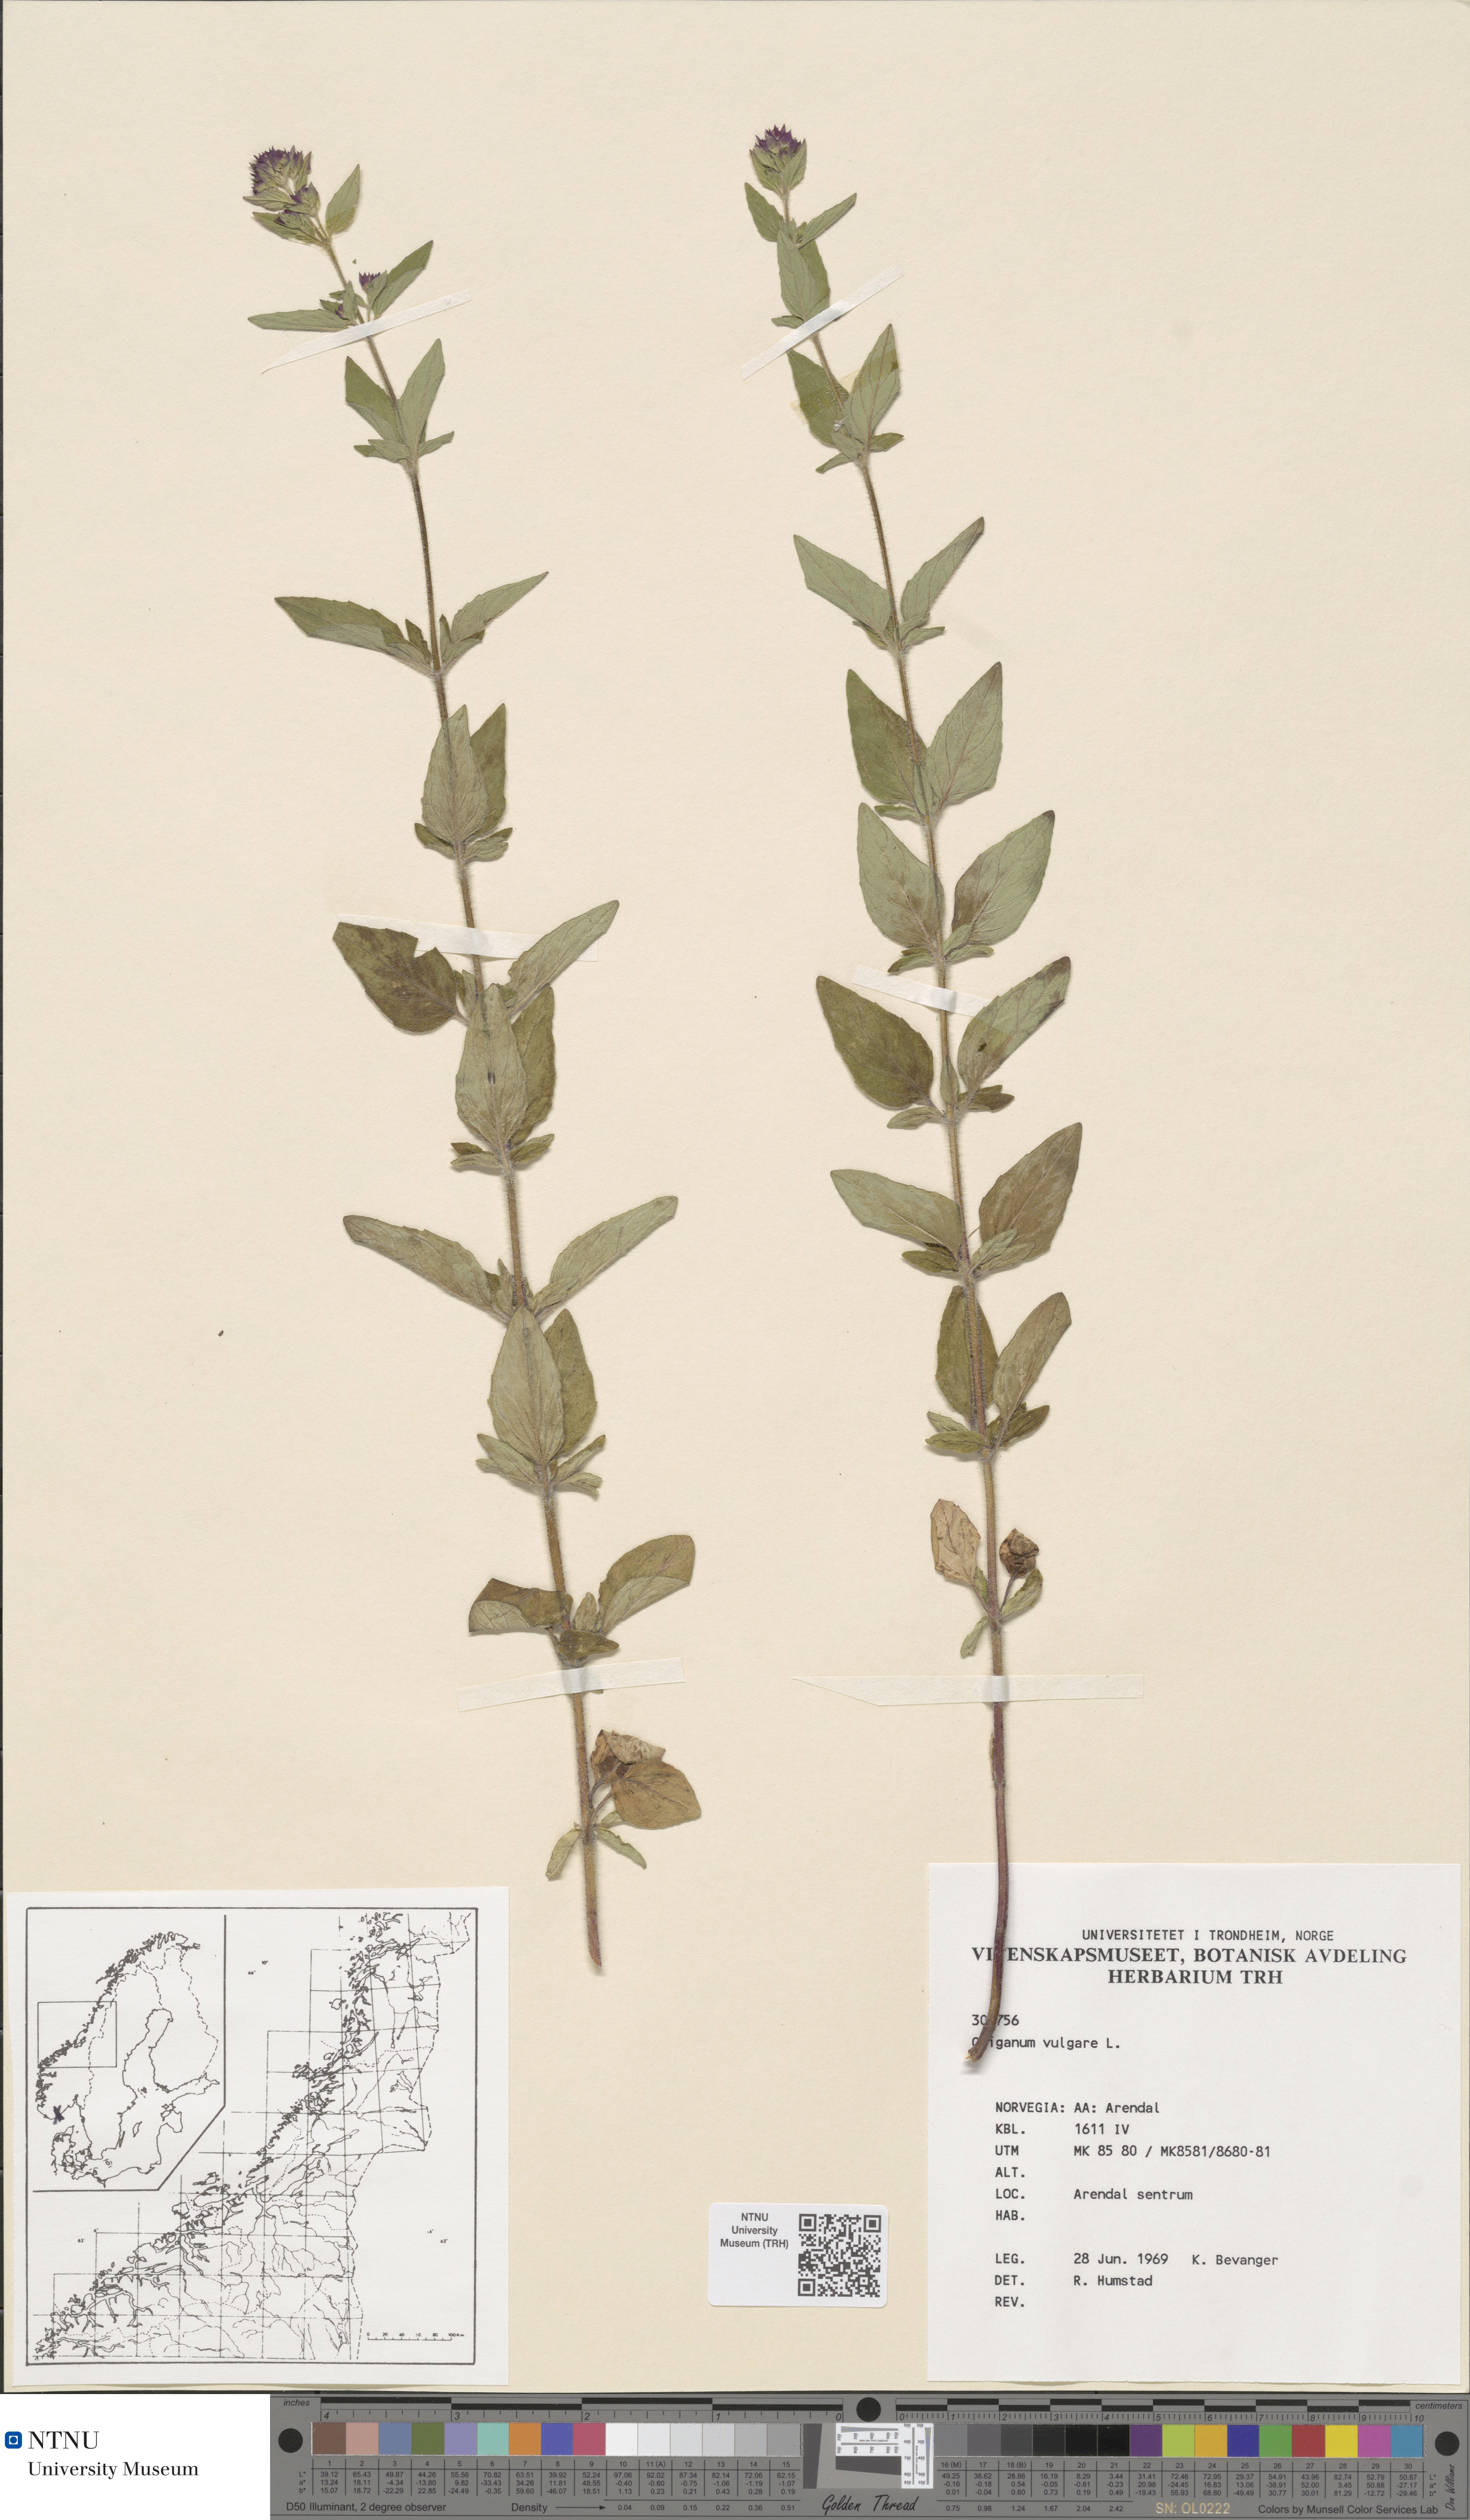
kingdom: Plantae
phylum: Tracheophyta
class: Magnoliopsida
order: Lamiales
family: Lamiaceae
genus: Origanum
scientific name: Origanum vulgare
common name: Wild marjoram
